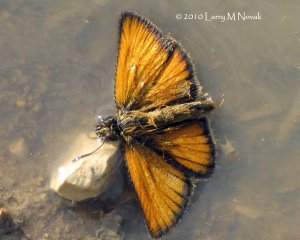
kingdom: Animalia
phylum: Arthropoda
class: Insecta
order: Lepidoptera
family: Hesperiidae
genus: Thymelicus
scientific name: Thymelicus lineola
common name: European Skipper
